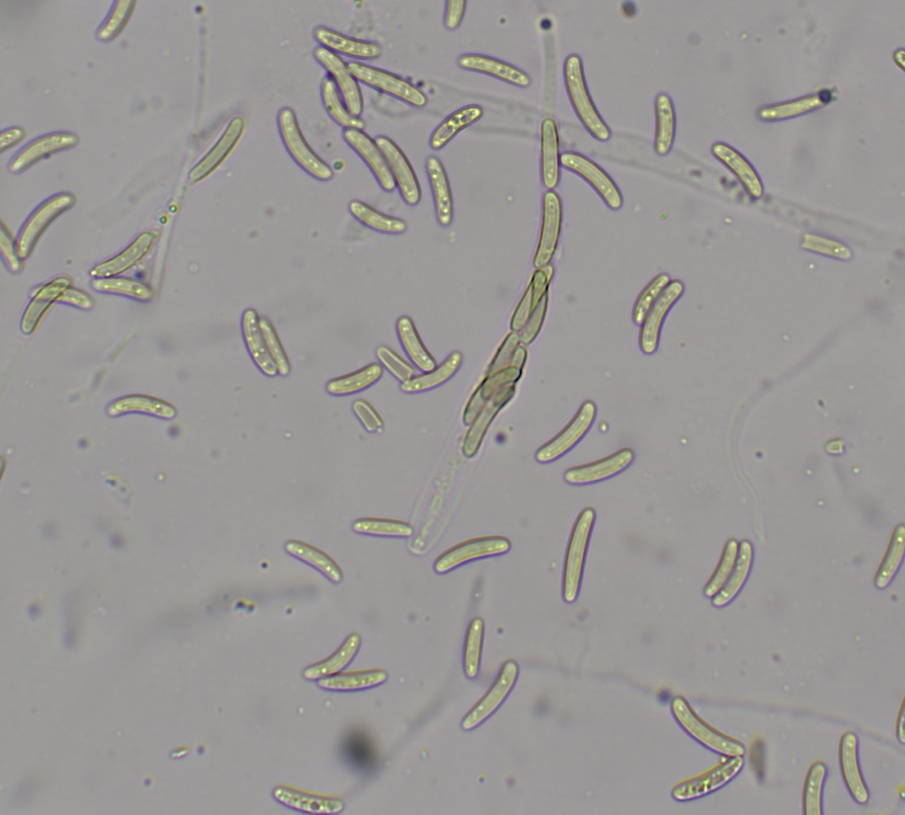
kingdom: Fungi
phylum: Ascomycota
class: Sordariomycetes
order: Xylariales
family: Diatrypaceae
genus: Eutypella
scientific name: Eutypella quaternata
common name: bøge-korsprik
